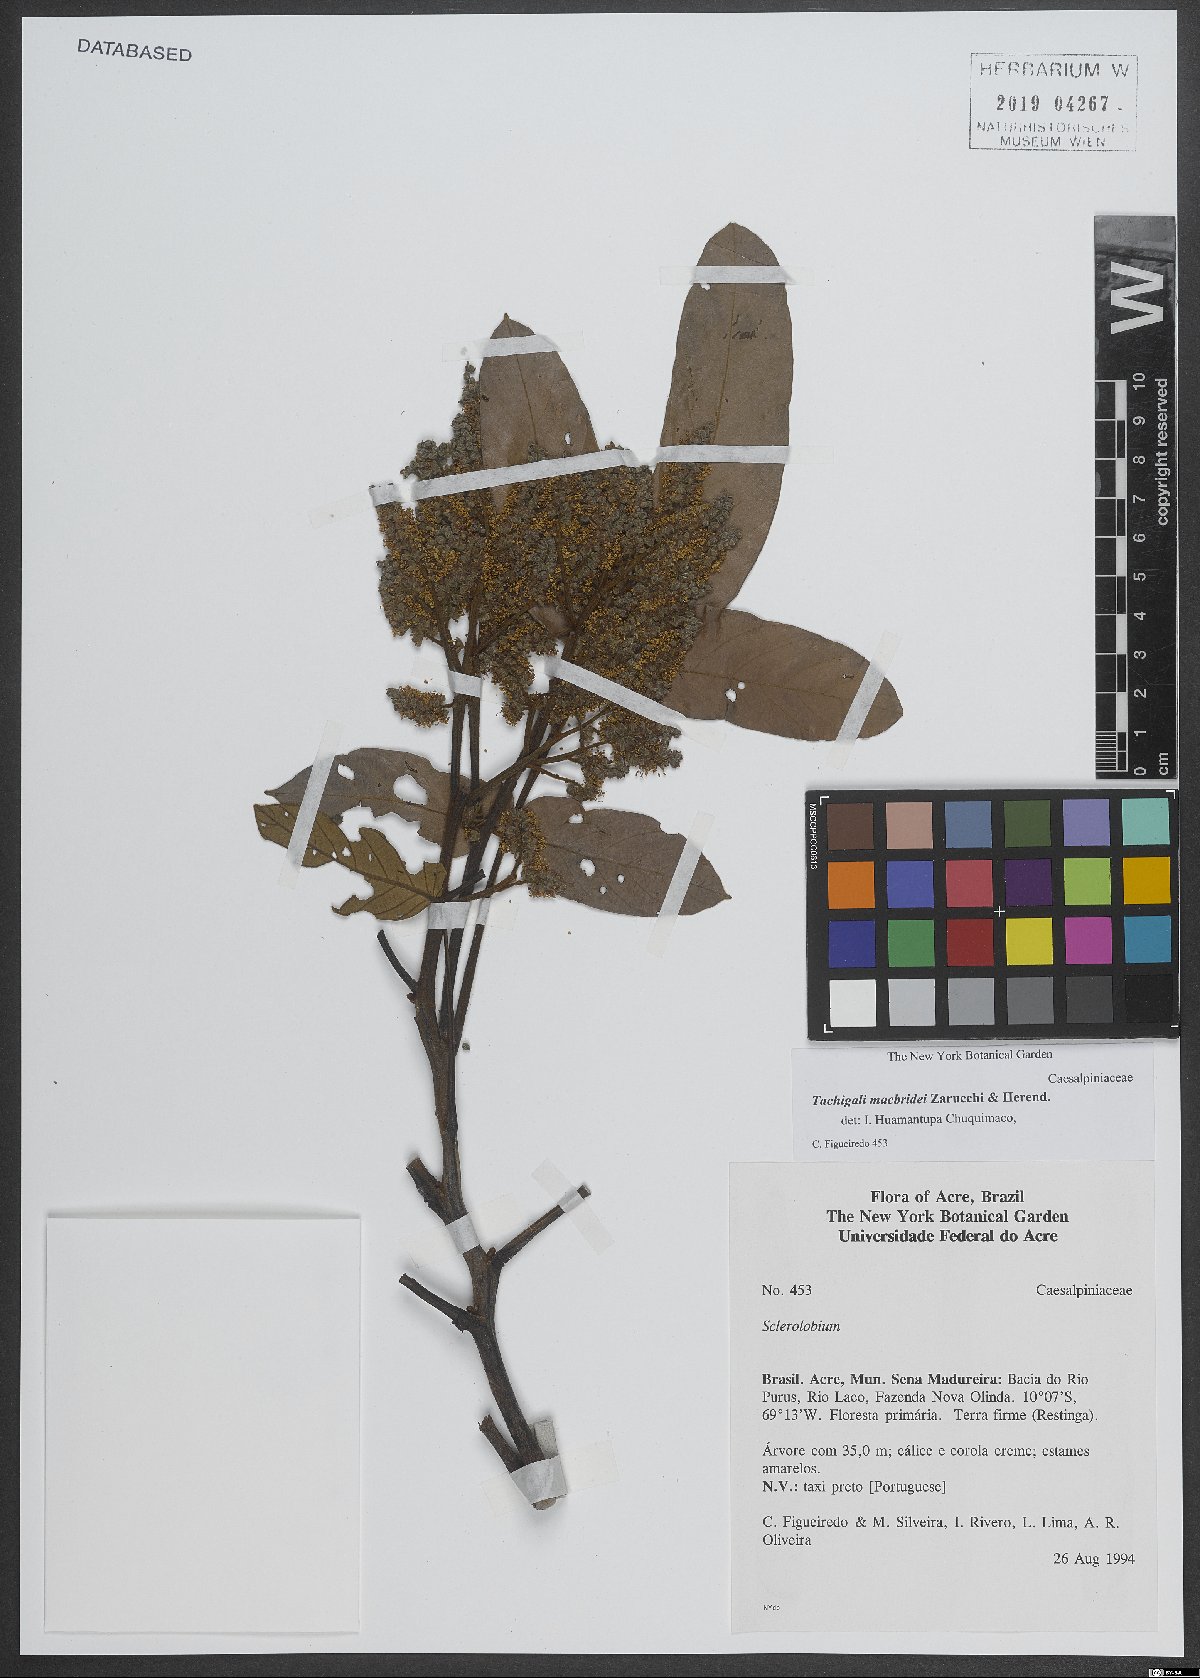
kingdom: Plantae
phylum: Tracheophyta
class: Magnoliopsida
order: Fabales
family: Fabaceae
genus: Tachigali
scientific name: Tachigali macbridei
